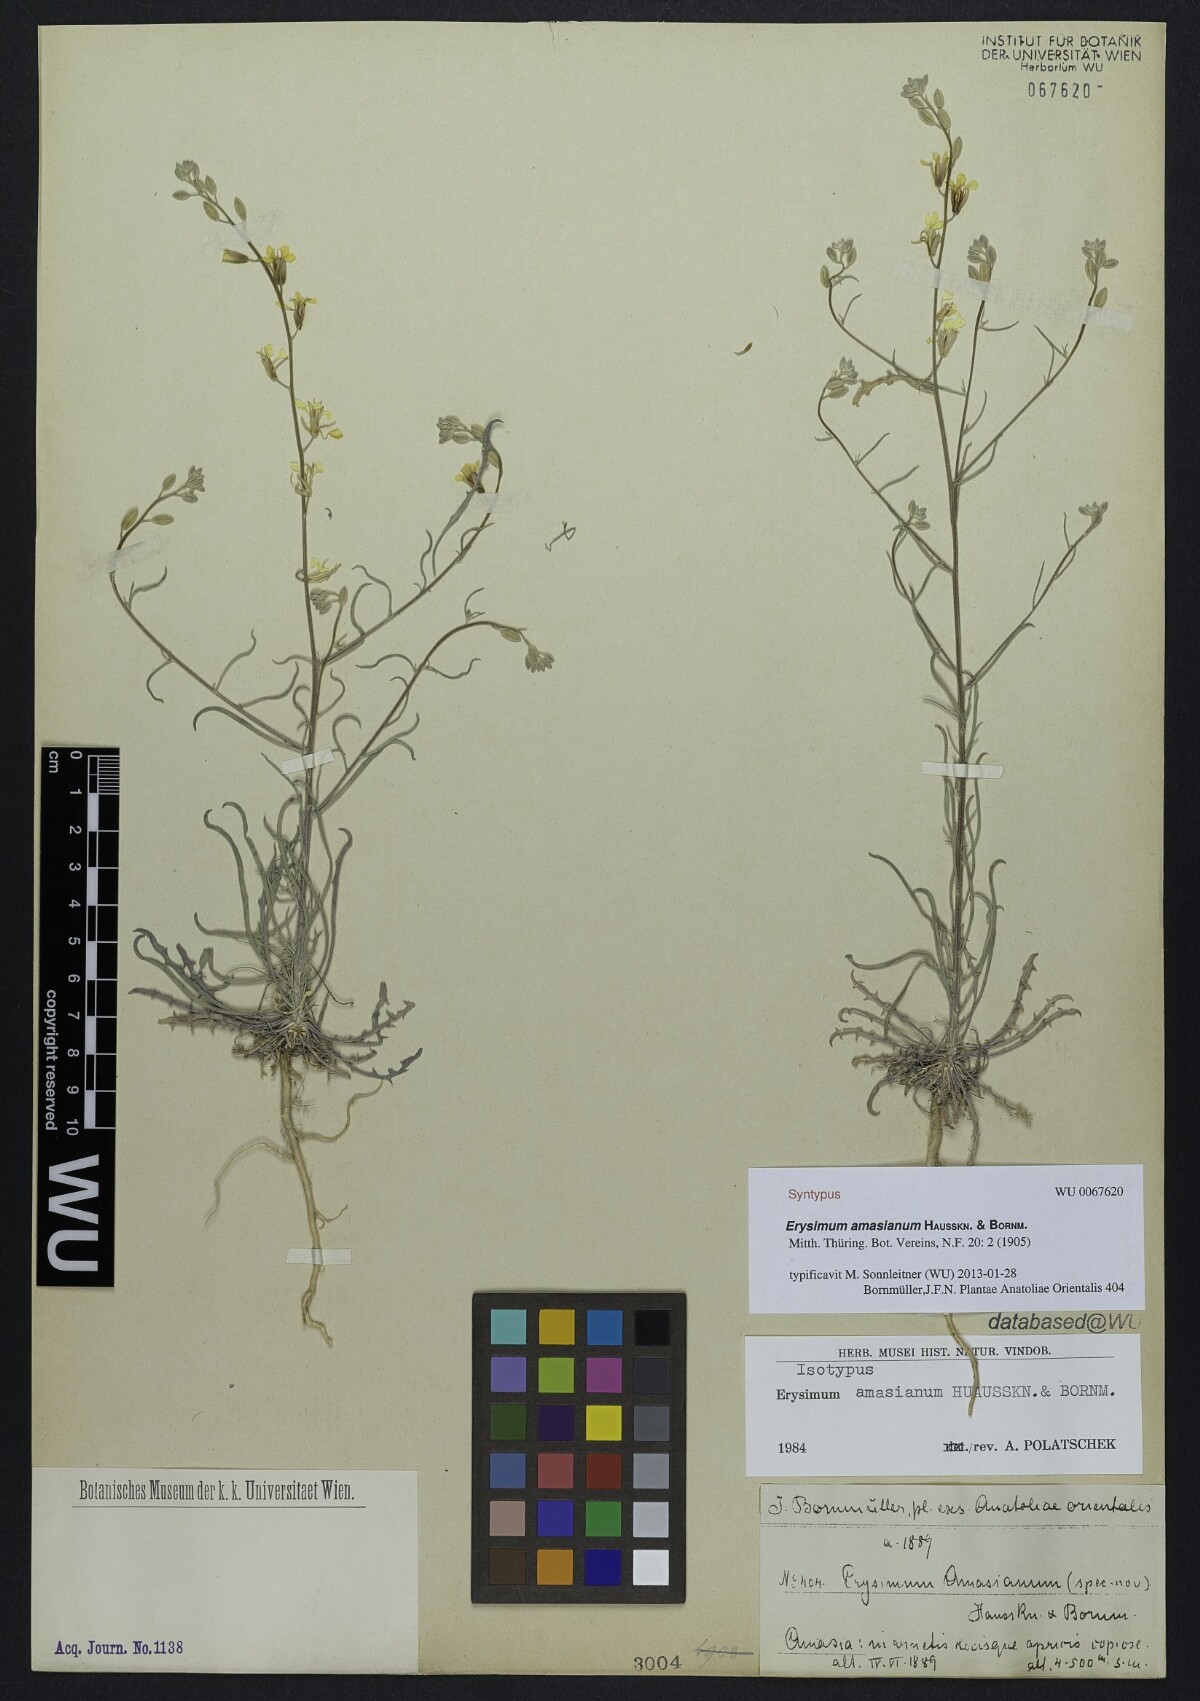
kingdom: Plantae
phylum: Tracheophyta
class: Magnoliopsida
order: Brassicales
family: Brassicaceae
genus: Erysimum
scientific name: Erysimum amasianum
